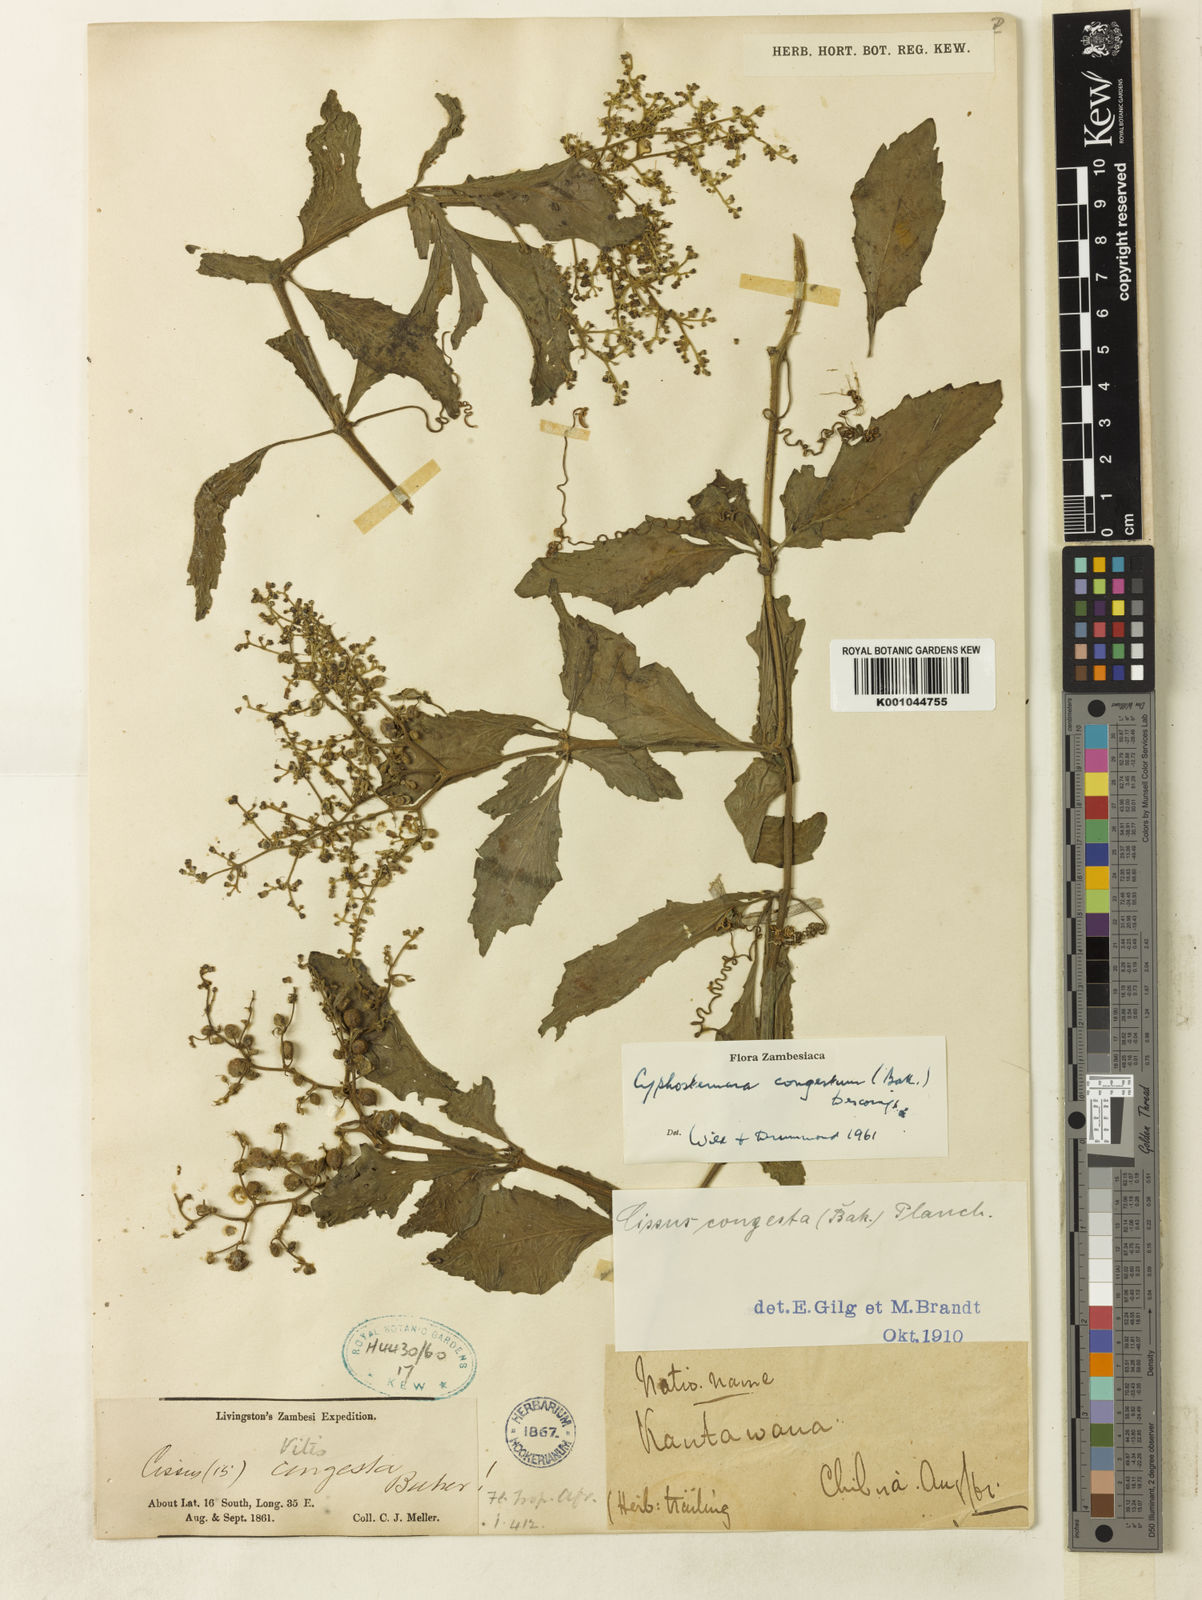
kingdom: Plantae
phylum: Tracheophyta
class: Magnoliopsida
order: Vitales
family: Vitaceae
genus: Cyphostemma
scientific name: Cyphostemma
